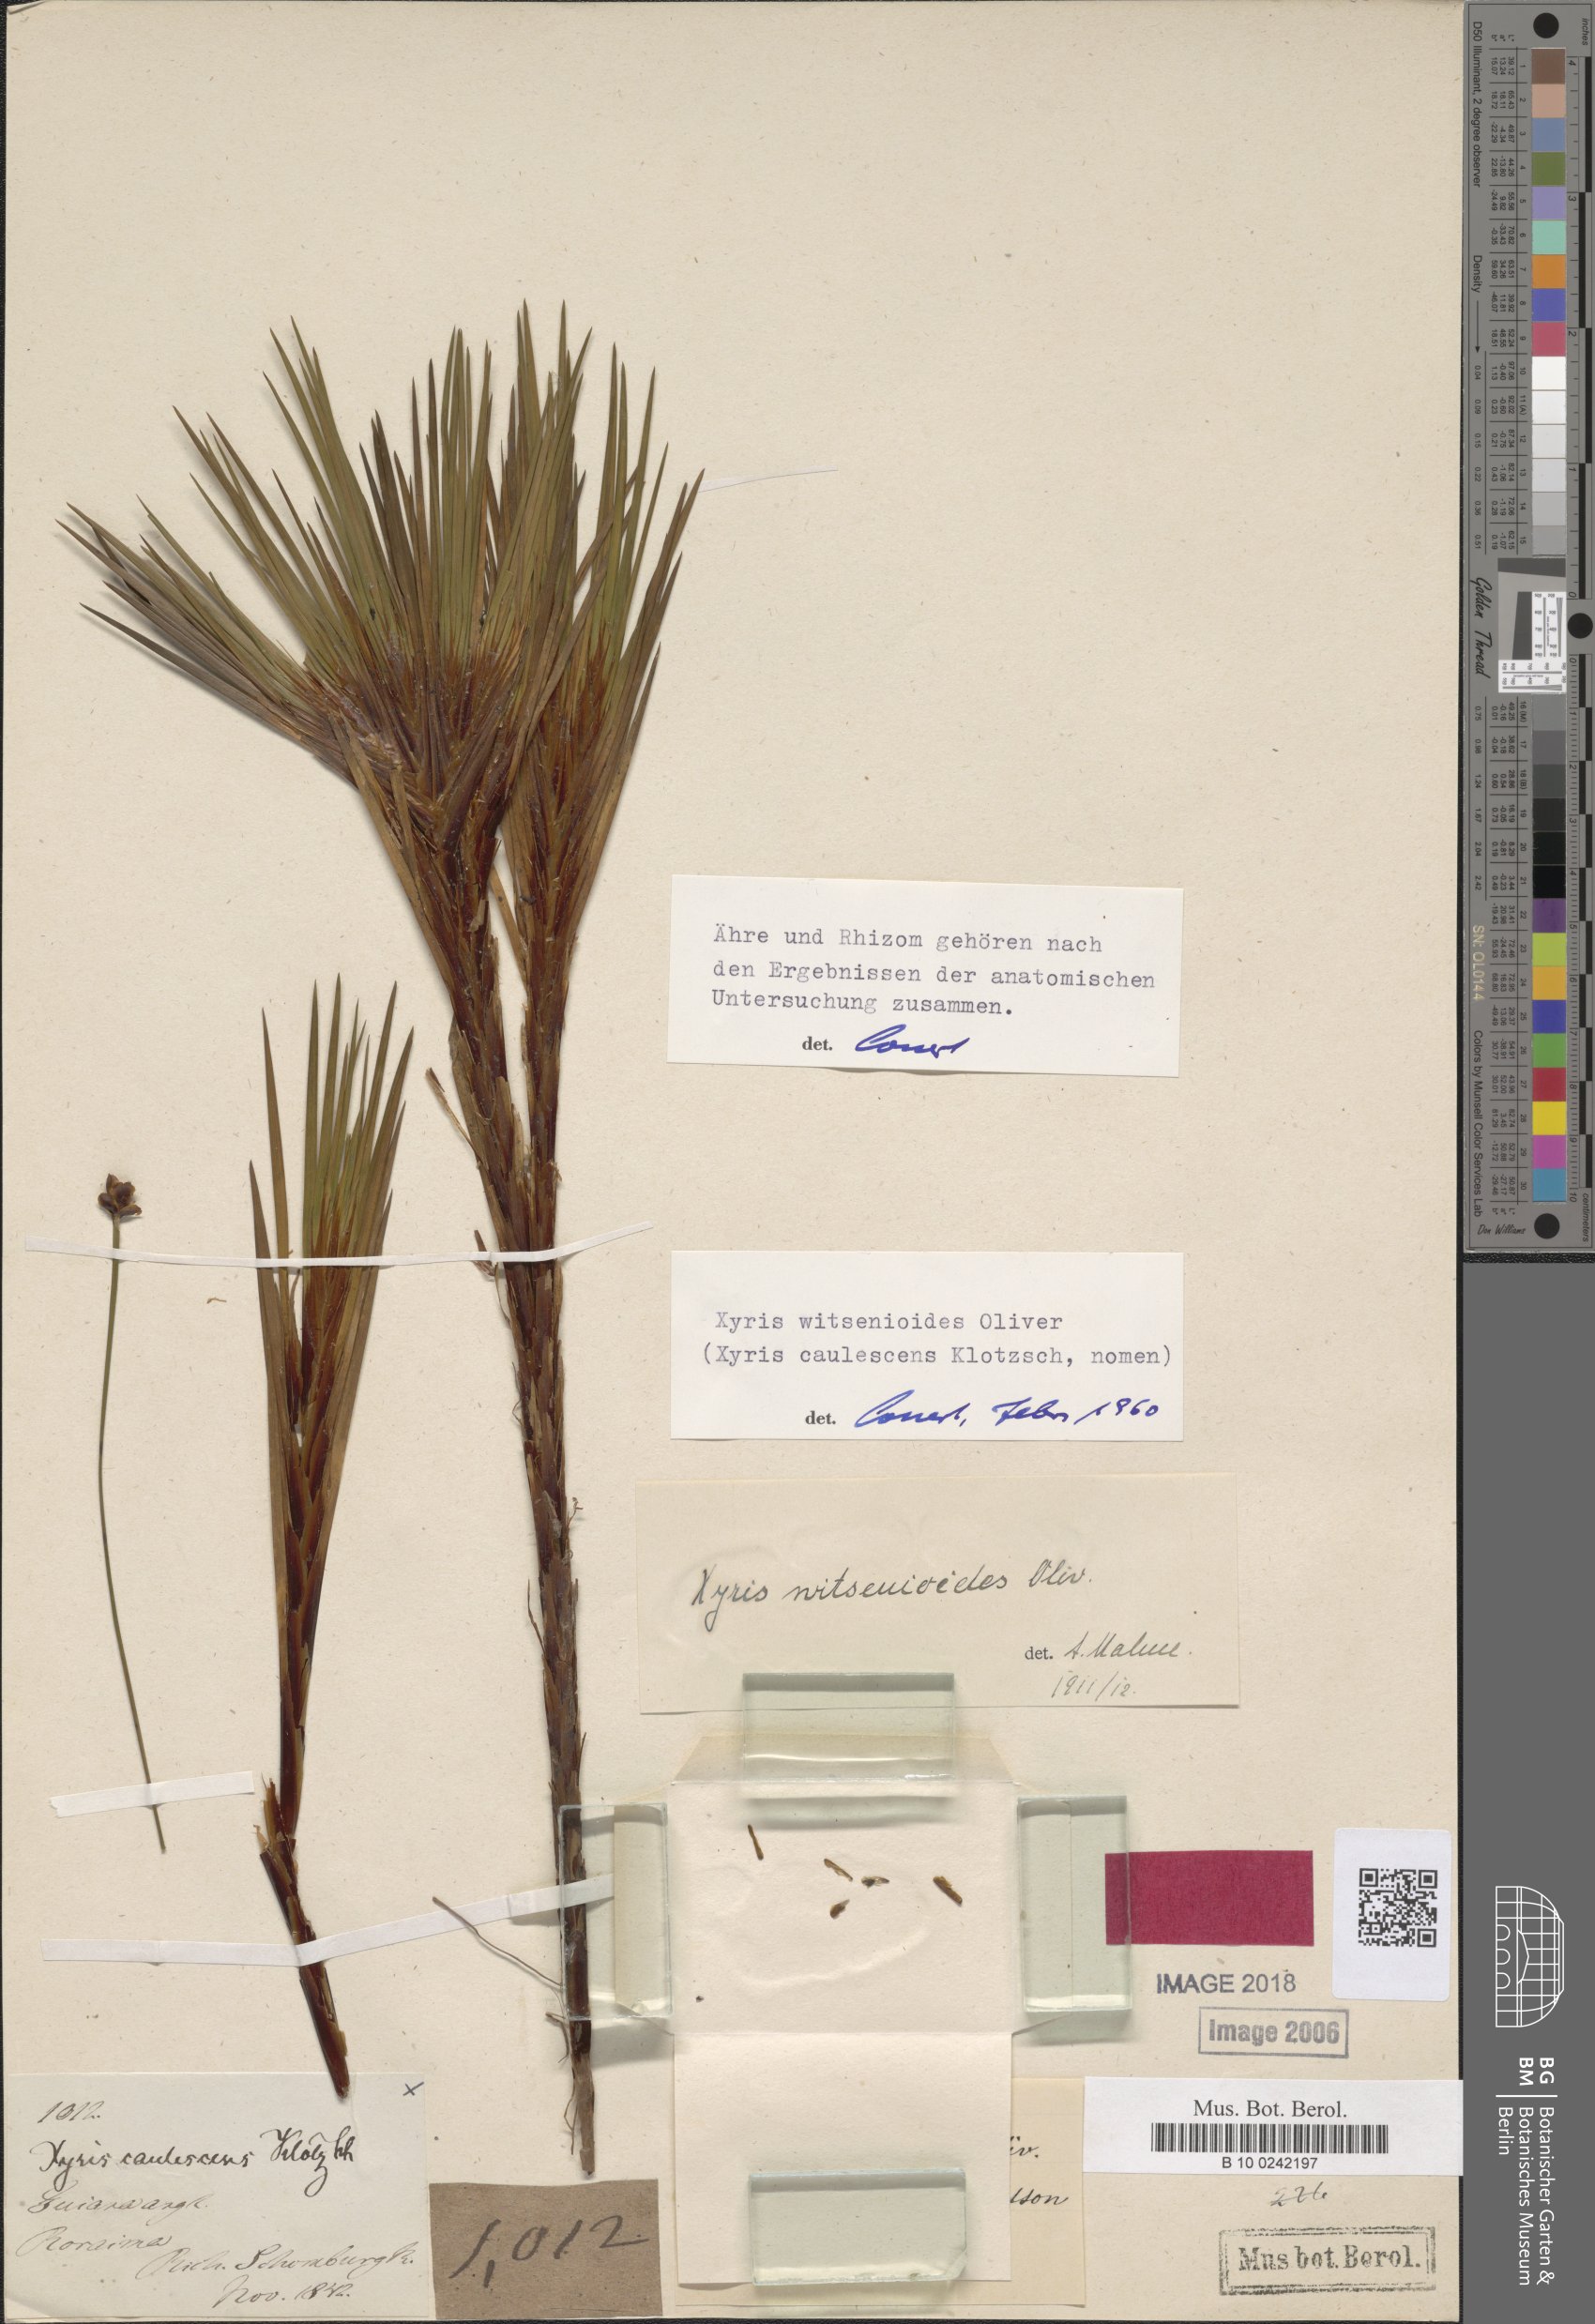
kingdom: Plantae
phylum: Tracheophyta
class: Liliopsida
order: Poales
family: Xyridaceae
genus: Xyris
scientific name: Xyris witsenioides
